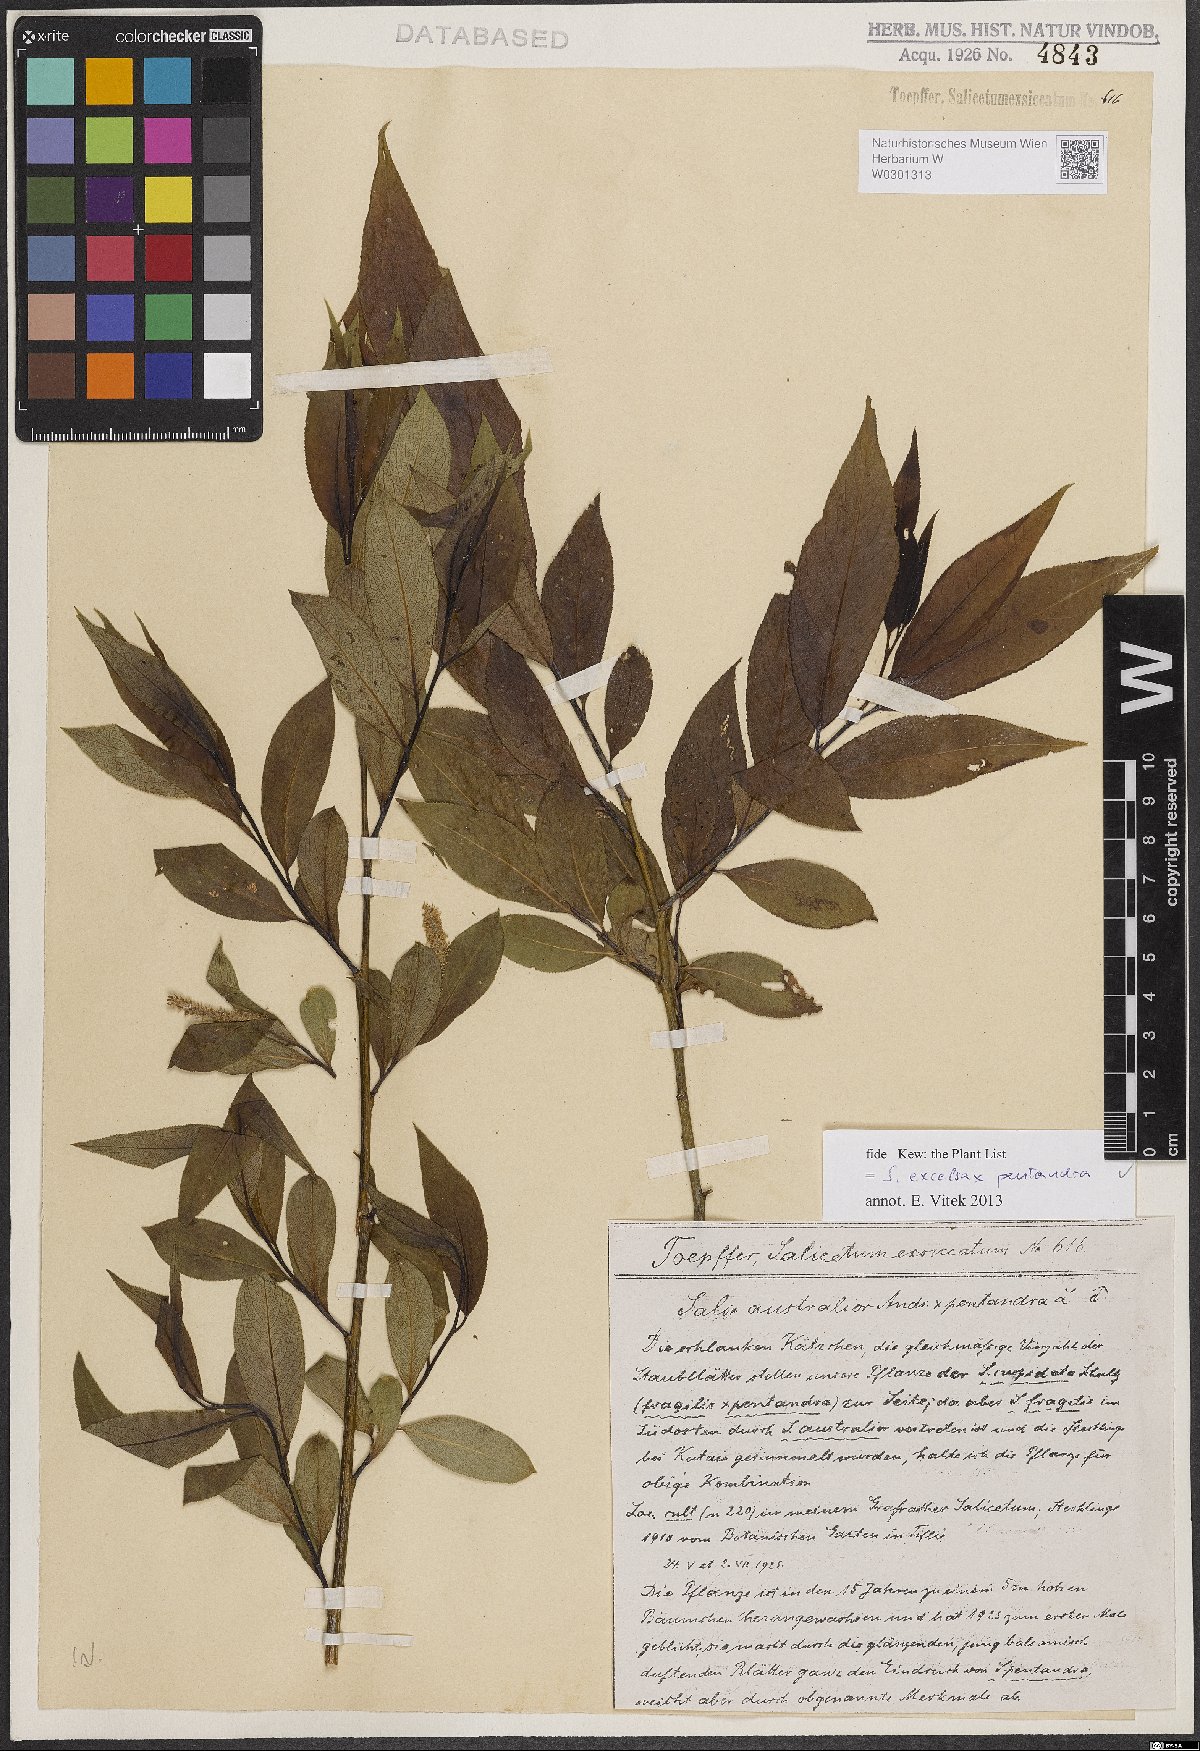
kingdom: Plantae
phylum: Tracheophyta
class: Magnoliopsida
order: Malpighiales
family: Salicaceae
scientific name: Salicaceae
